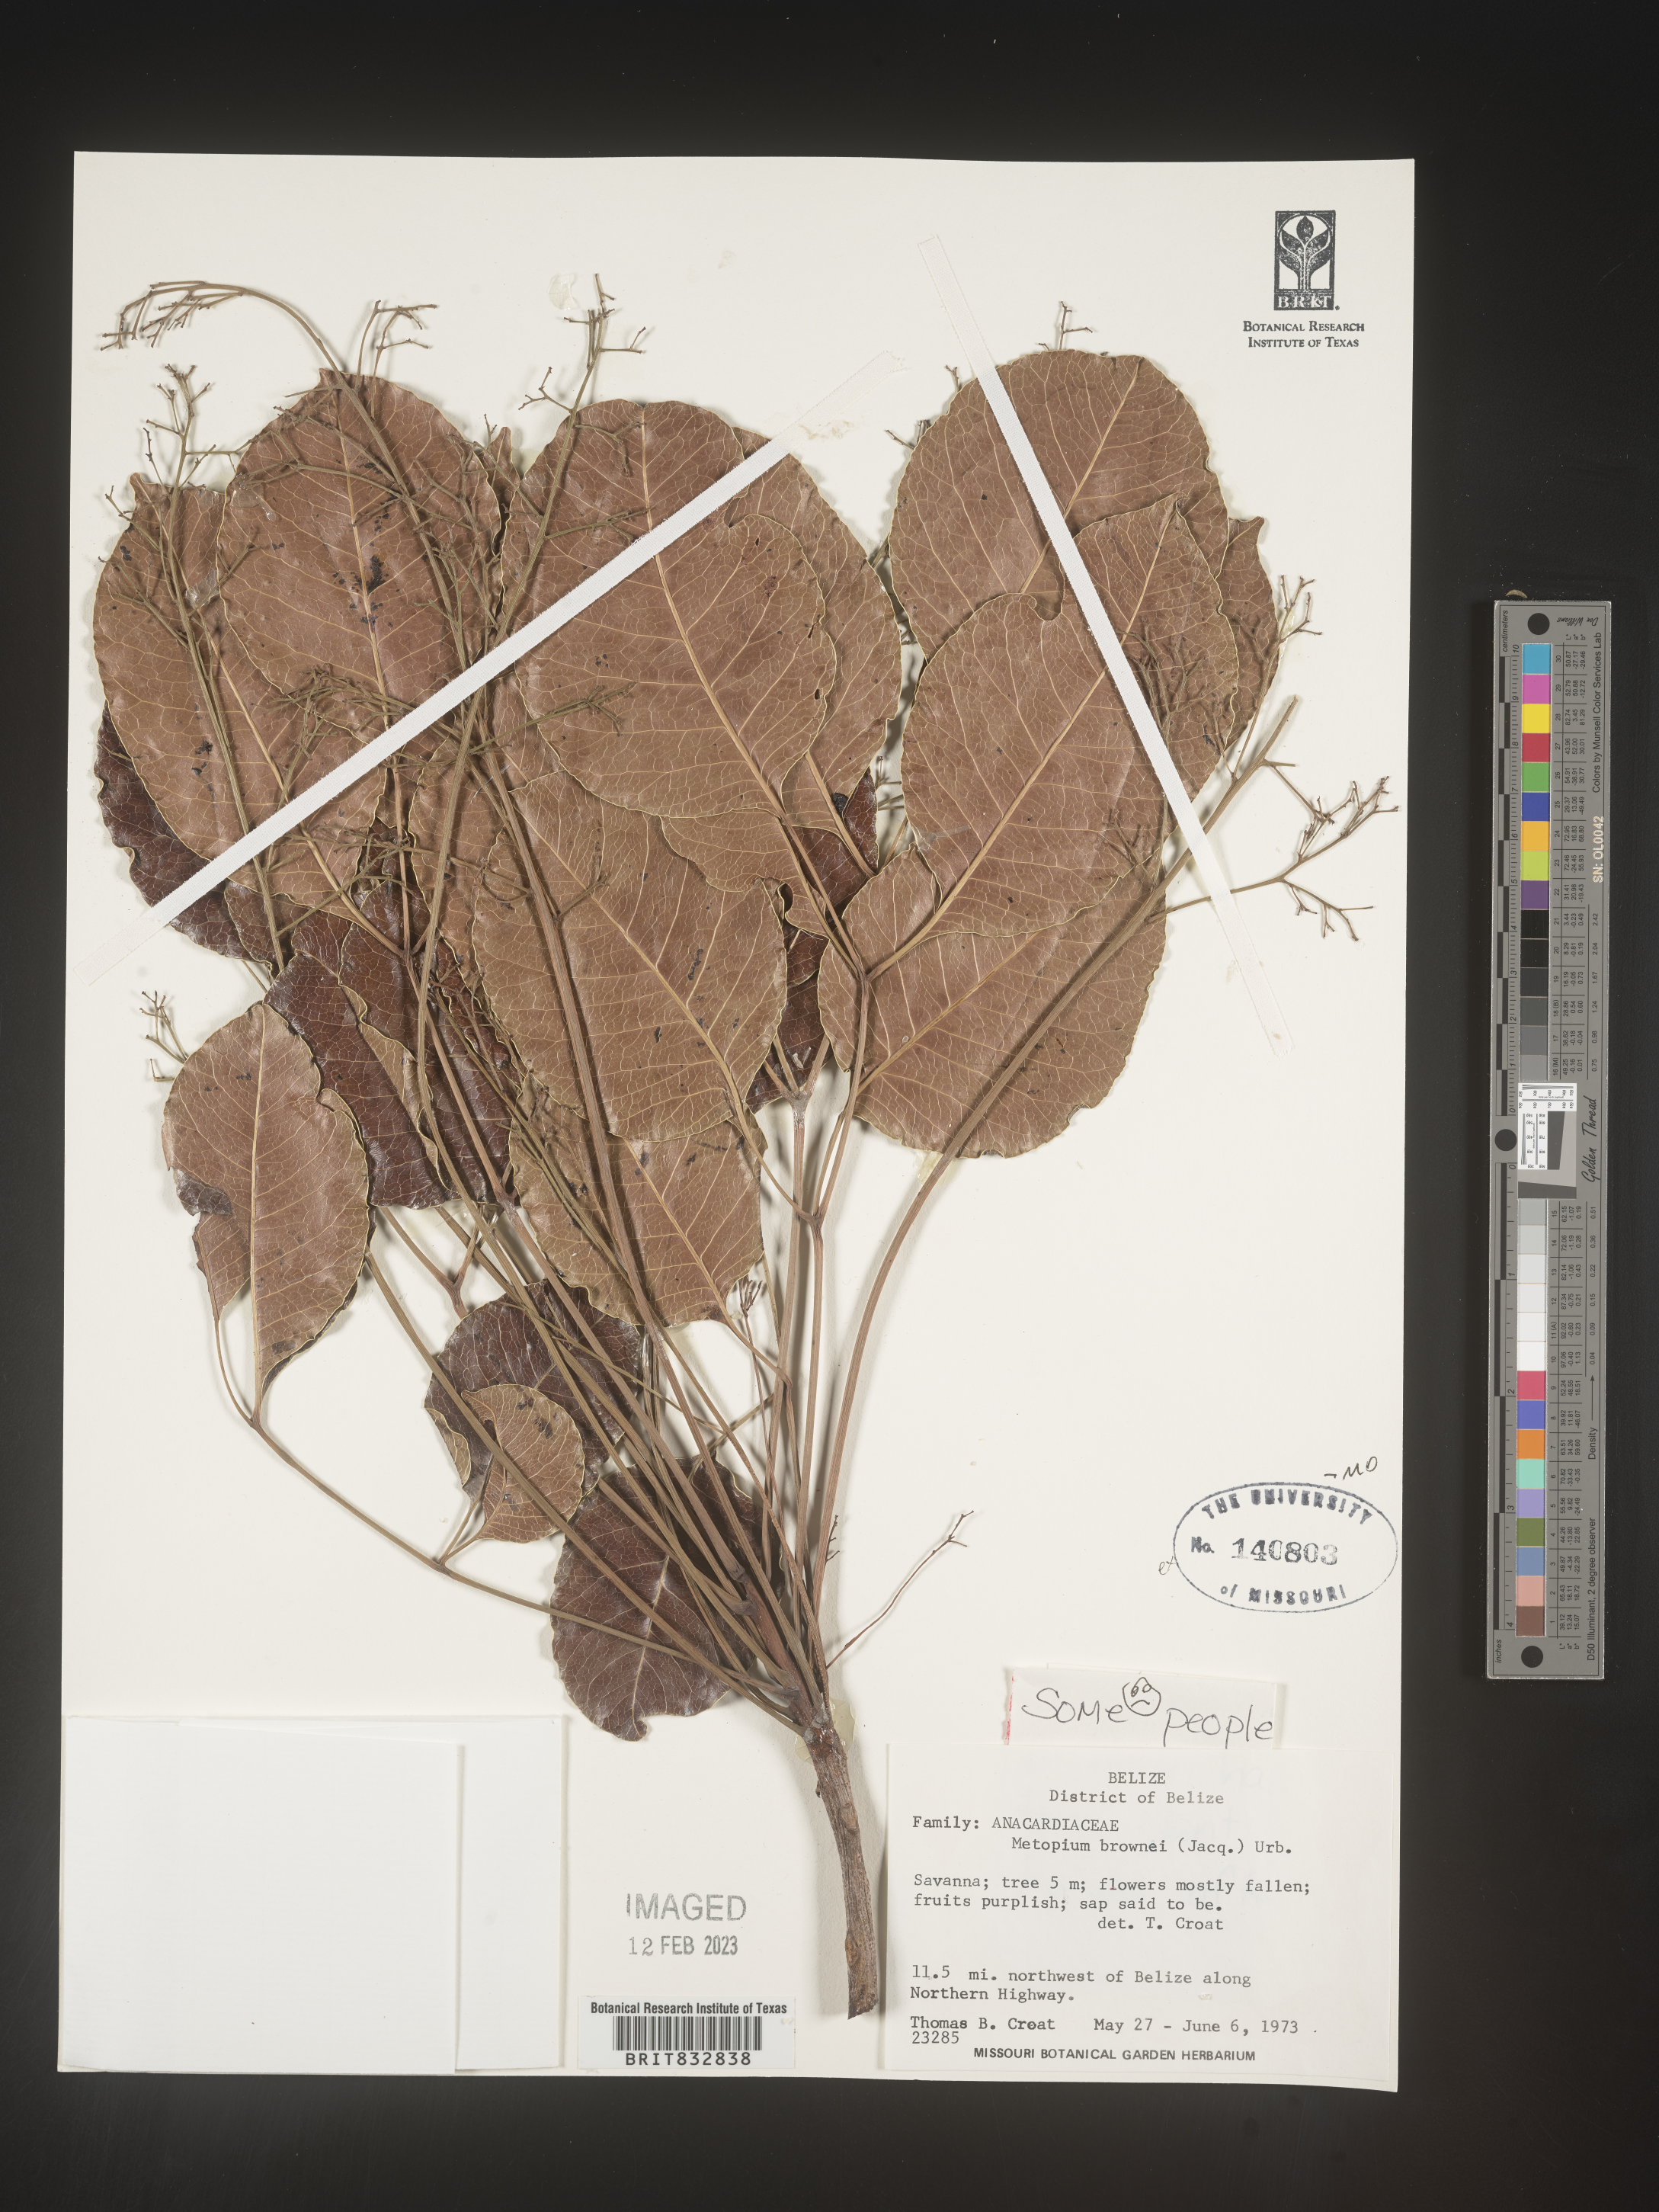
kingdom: Plantae
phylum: Tracheophyta
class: Magnoliopsida
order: Sapindales
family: Anacardiaceae
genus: Metopium
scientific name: Metopium brownei
